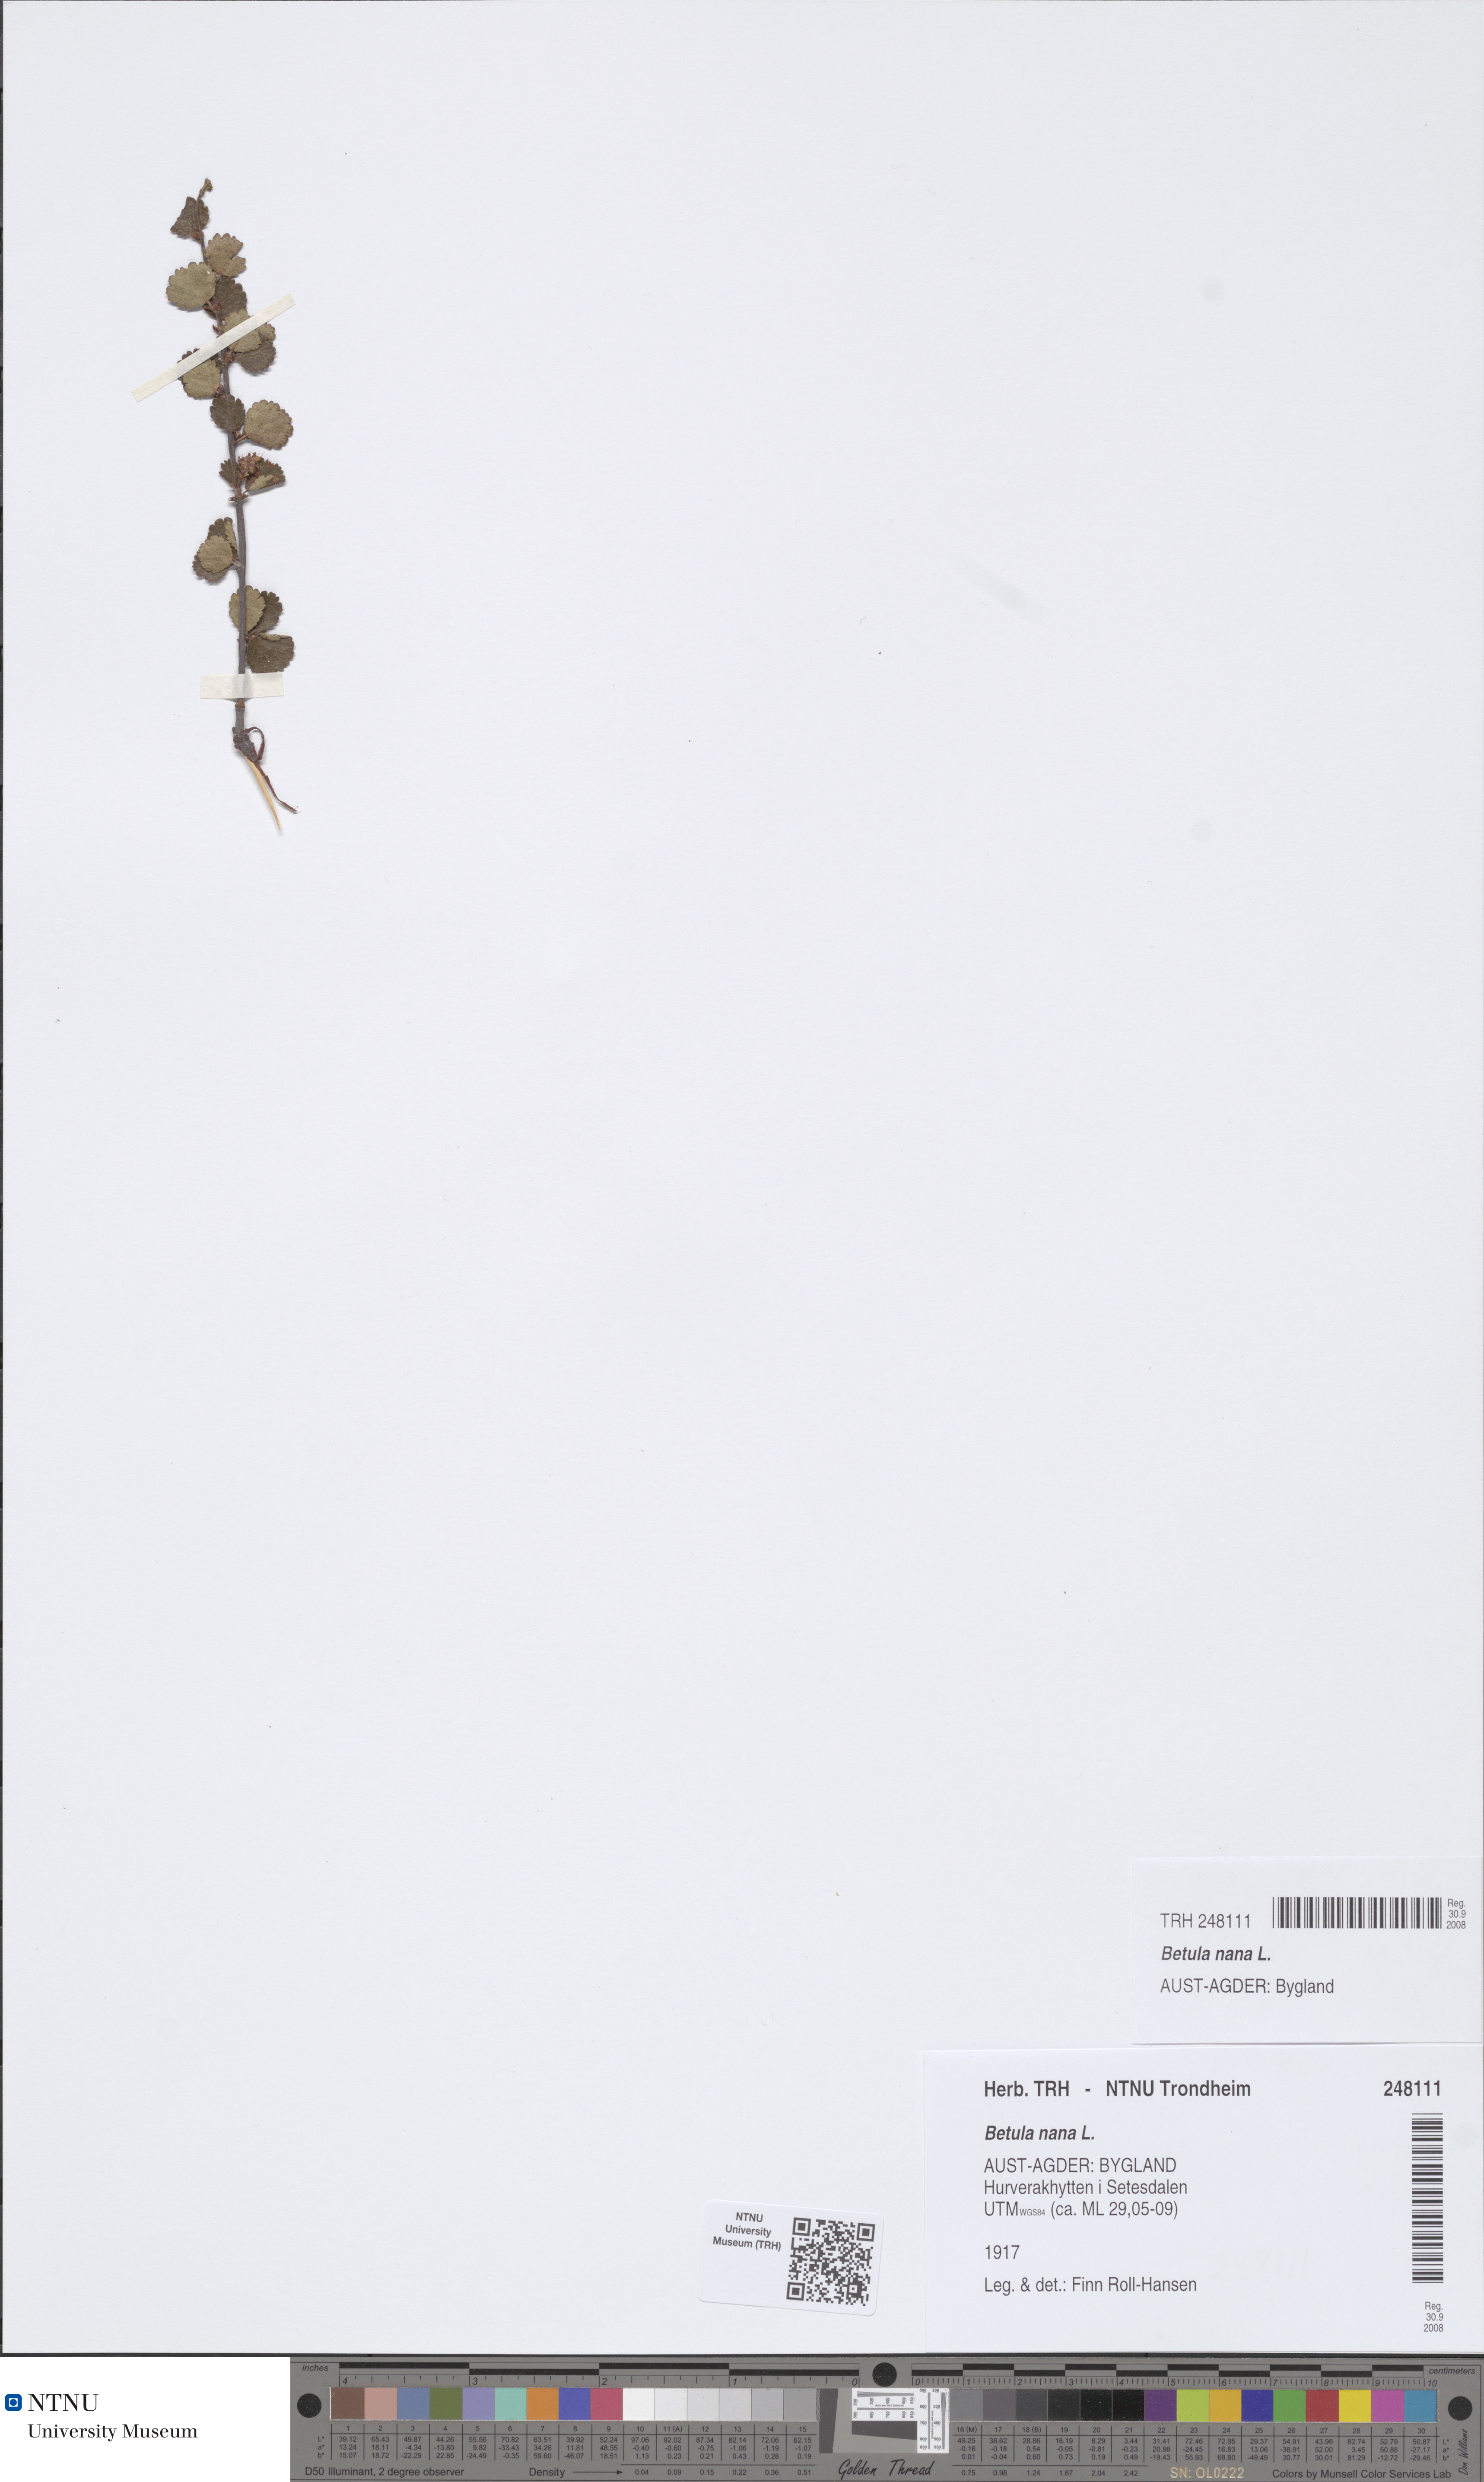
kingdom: Plantae
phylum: Tracheophyta
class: Magnoliopsida
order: Fagales
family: Betulaceae
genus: Betula
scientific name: Betula nana
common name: Arctic dwarf birch
